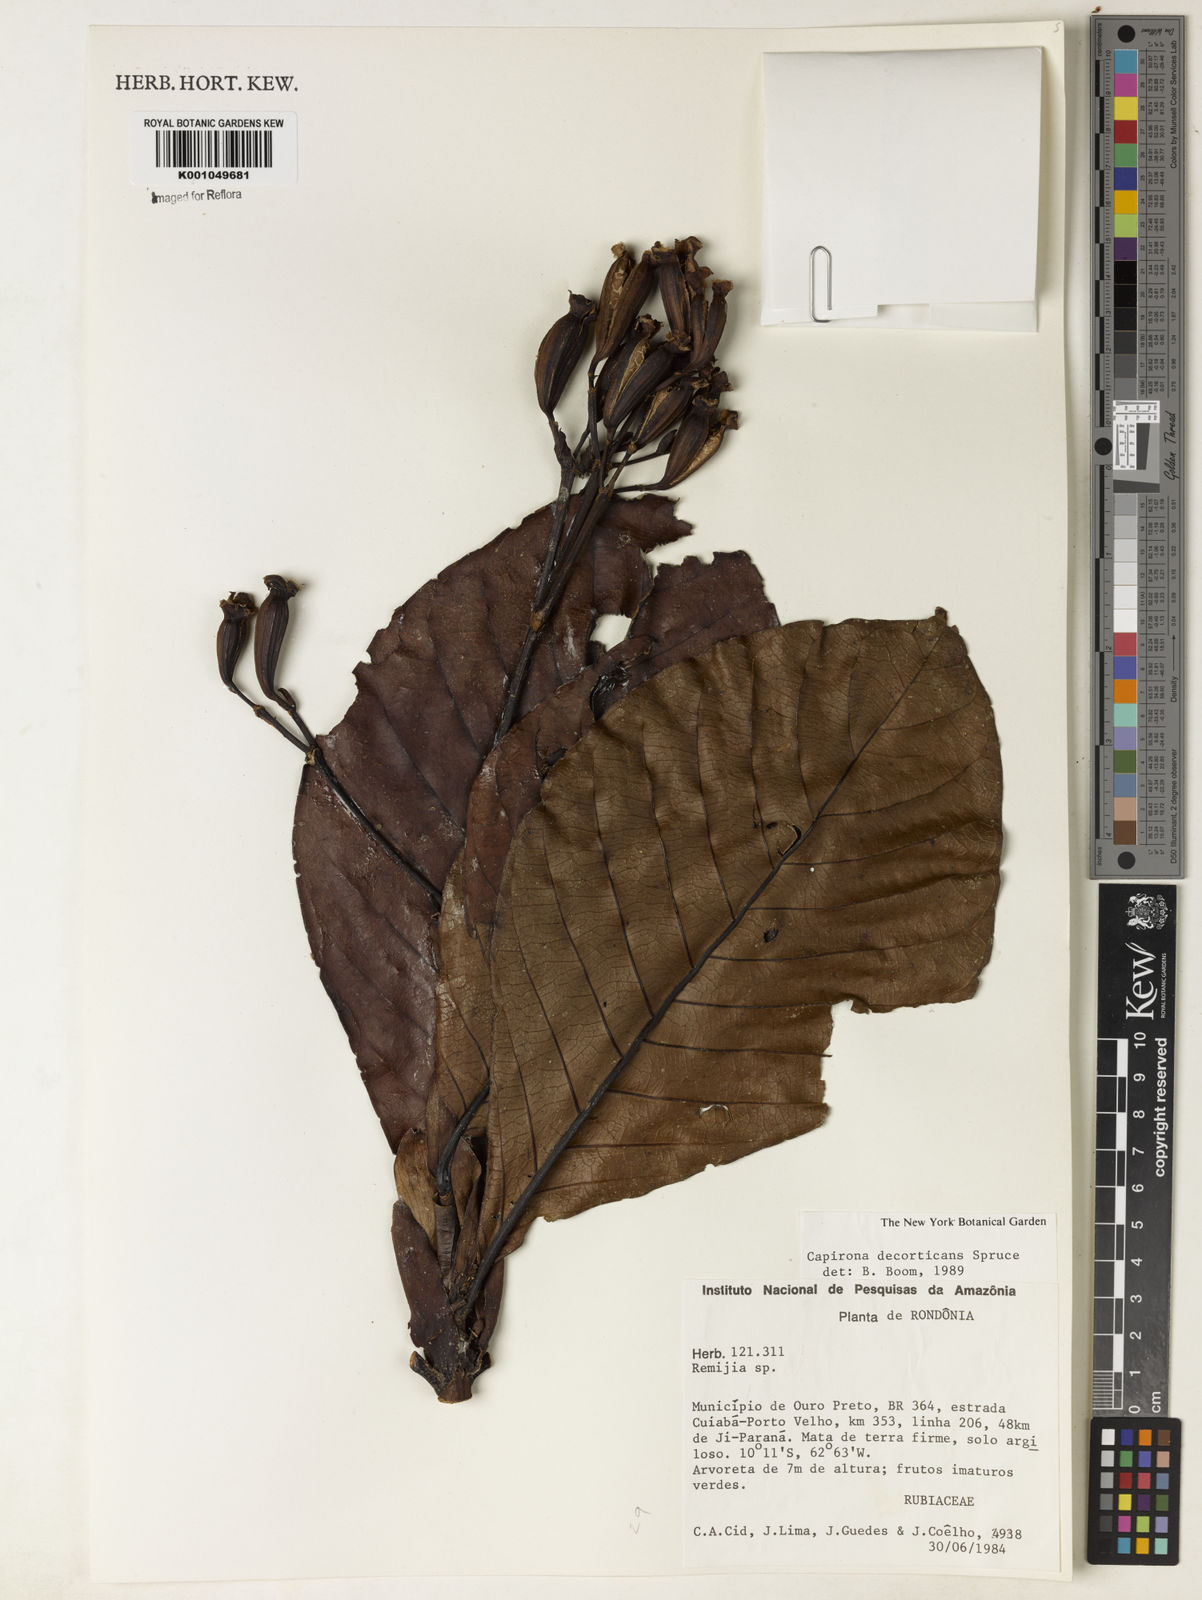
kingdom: Plantae
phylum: Tracheophyta
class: Magnoliopsida
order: Gentianales
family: Rubiaceae
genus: Capirona
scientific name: Capirona macrophylla
